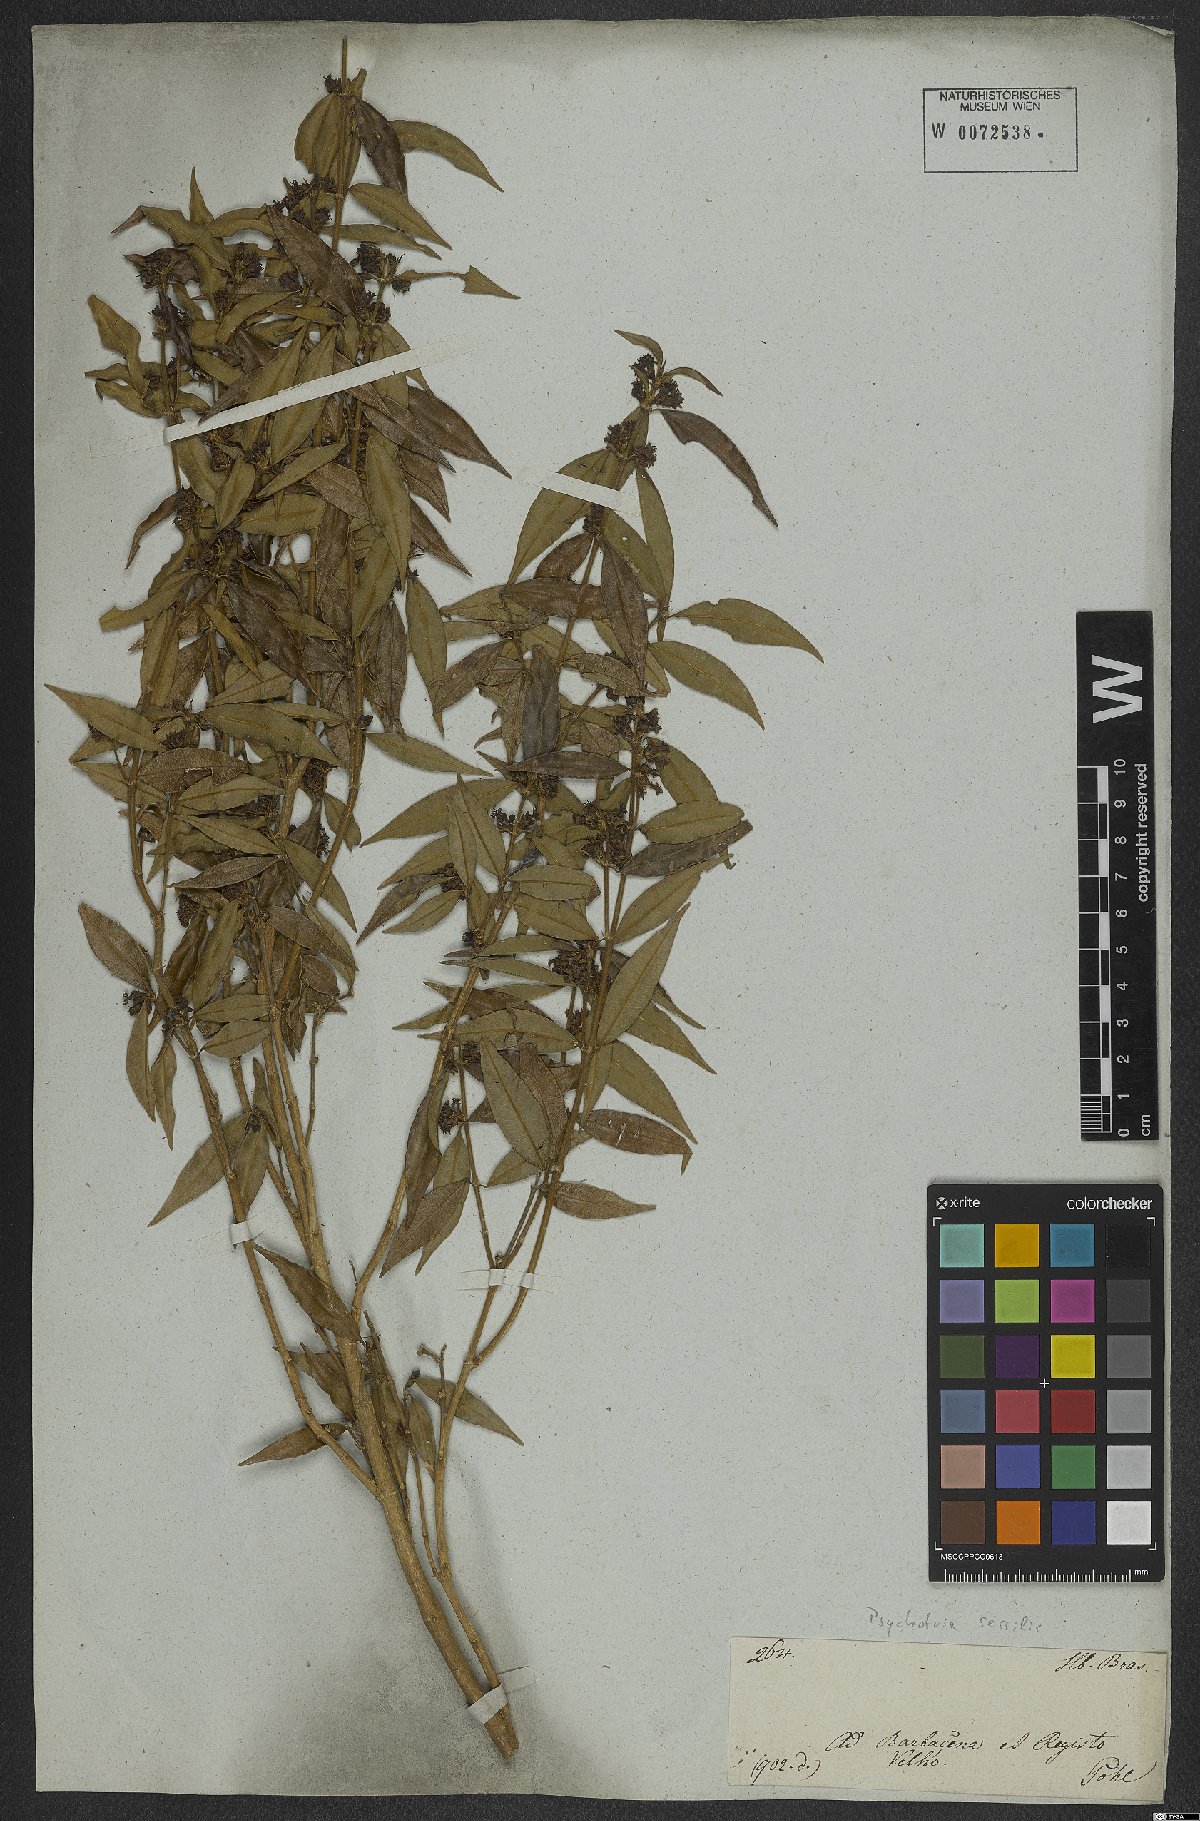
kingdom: Plantae
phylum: Tracheophyta
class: Magnoliopsida
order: Gentianales
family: Rubiaceae
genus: Rudgea
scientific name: Rudgea sessilis
